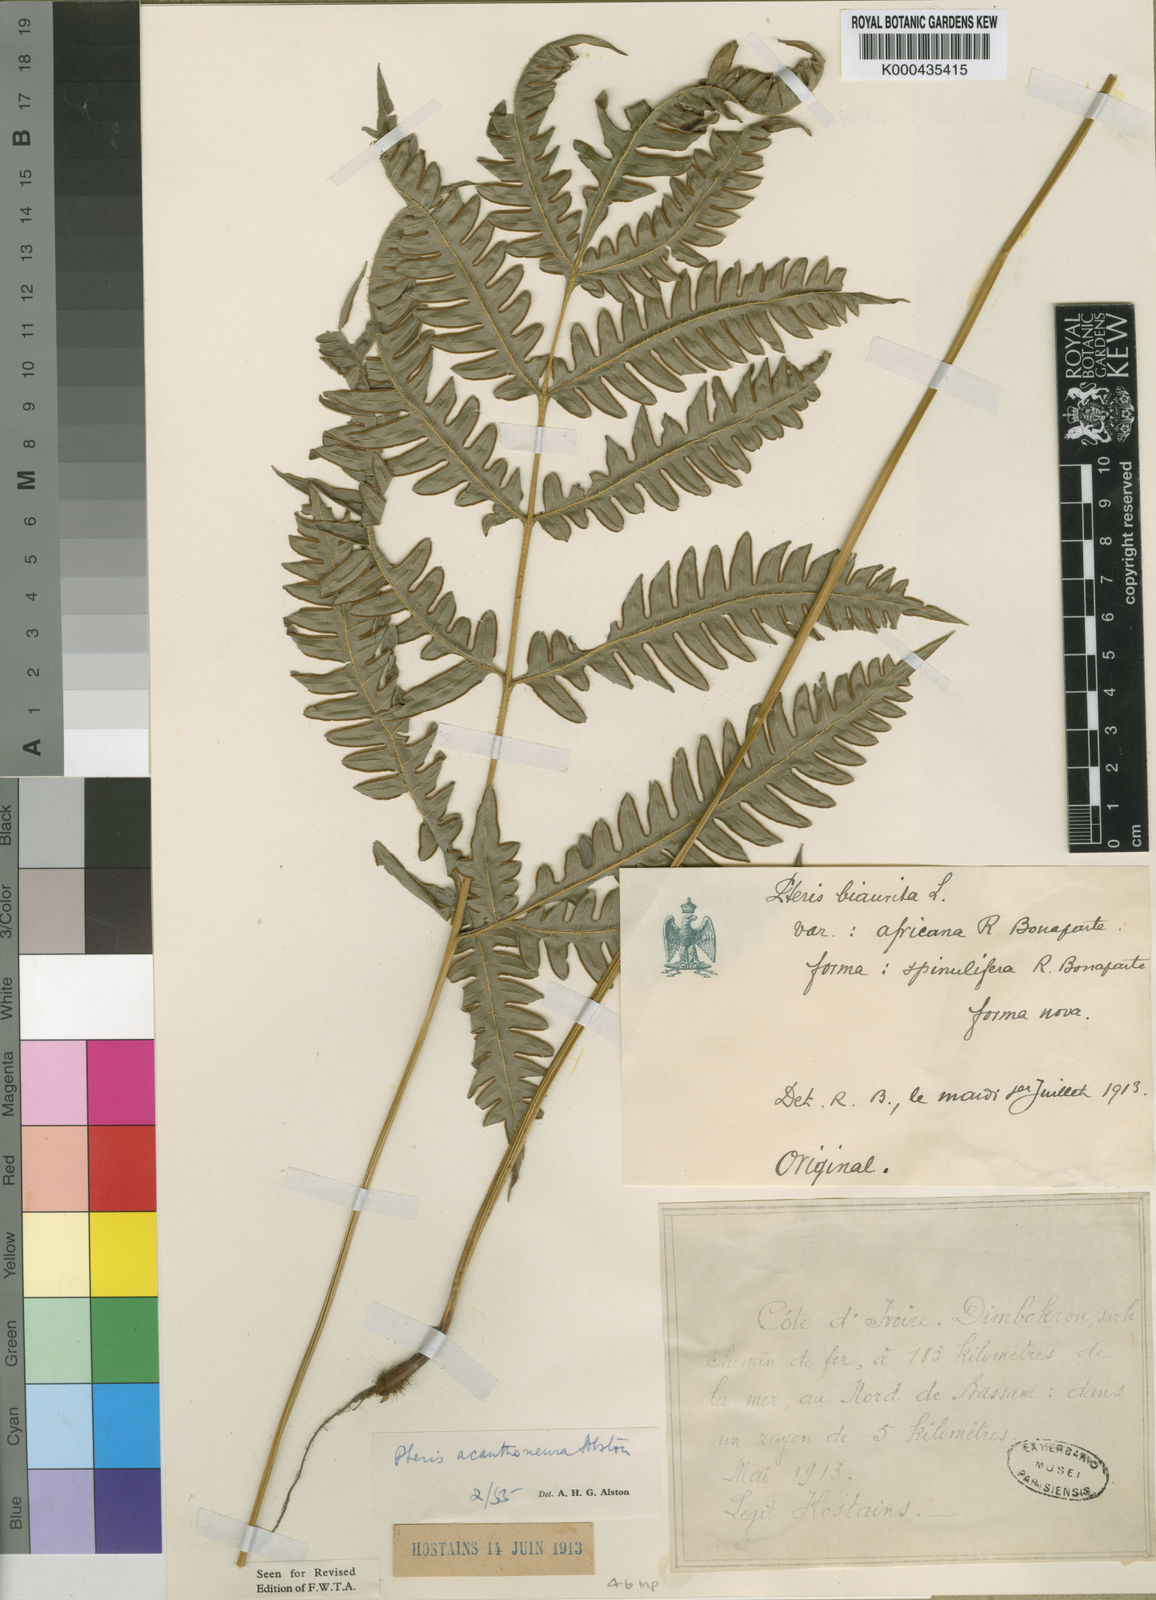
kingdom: Plantae
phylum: Tracheophyta
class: Polypodiopsida
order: Polypodiales
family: Pteridaceae
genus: Pteris
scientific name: Pteris hamulosa
